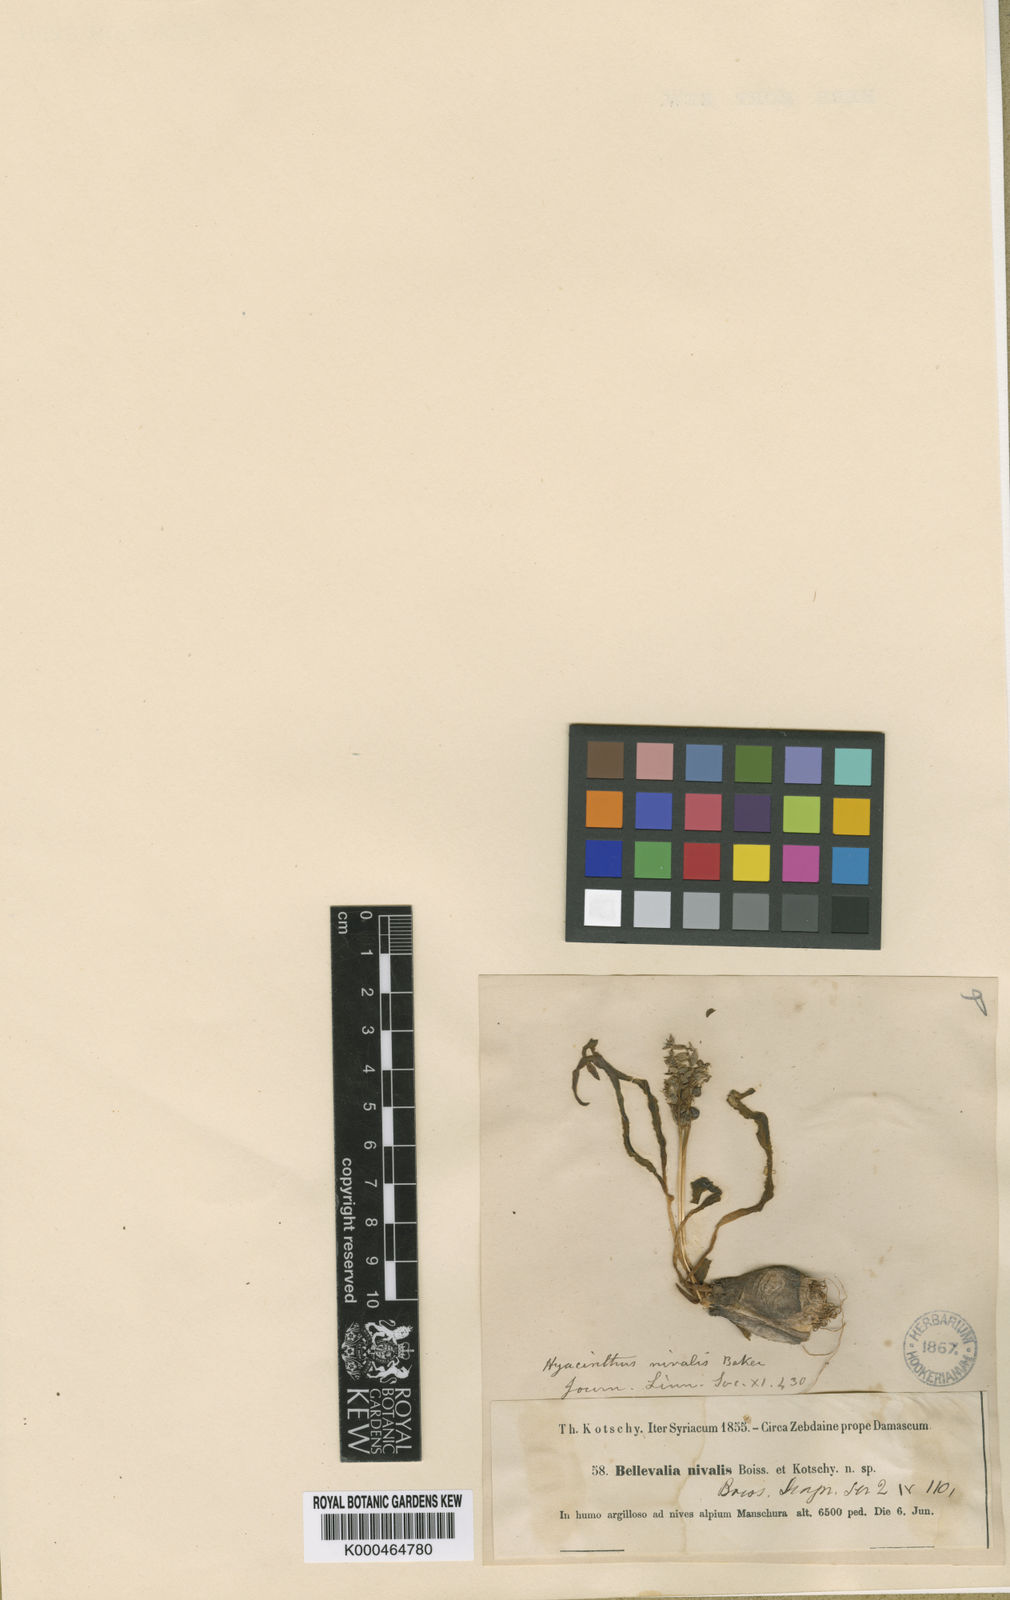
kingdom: Plantae
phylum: Tracheophyta
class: Liliopsida
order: Asparagales
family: Asparagaceae
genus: Bellevalia
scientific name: Bellevalia nivalis
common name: Snow bellevalia
